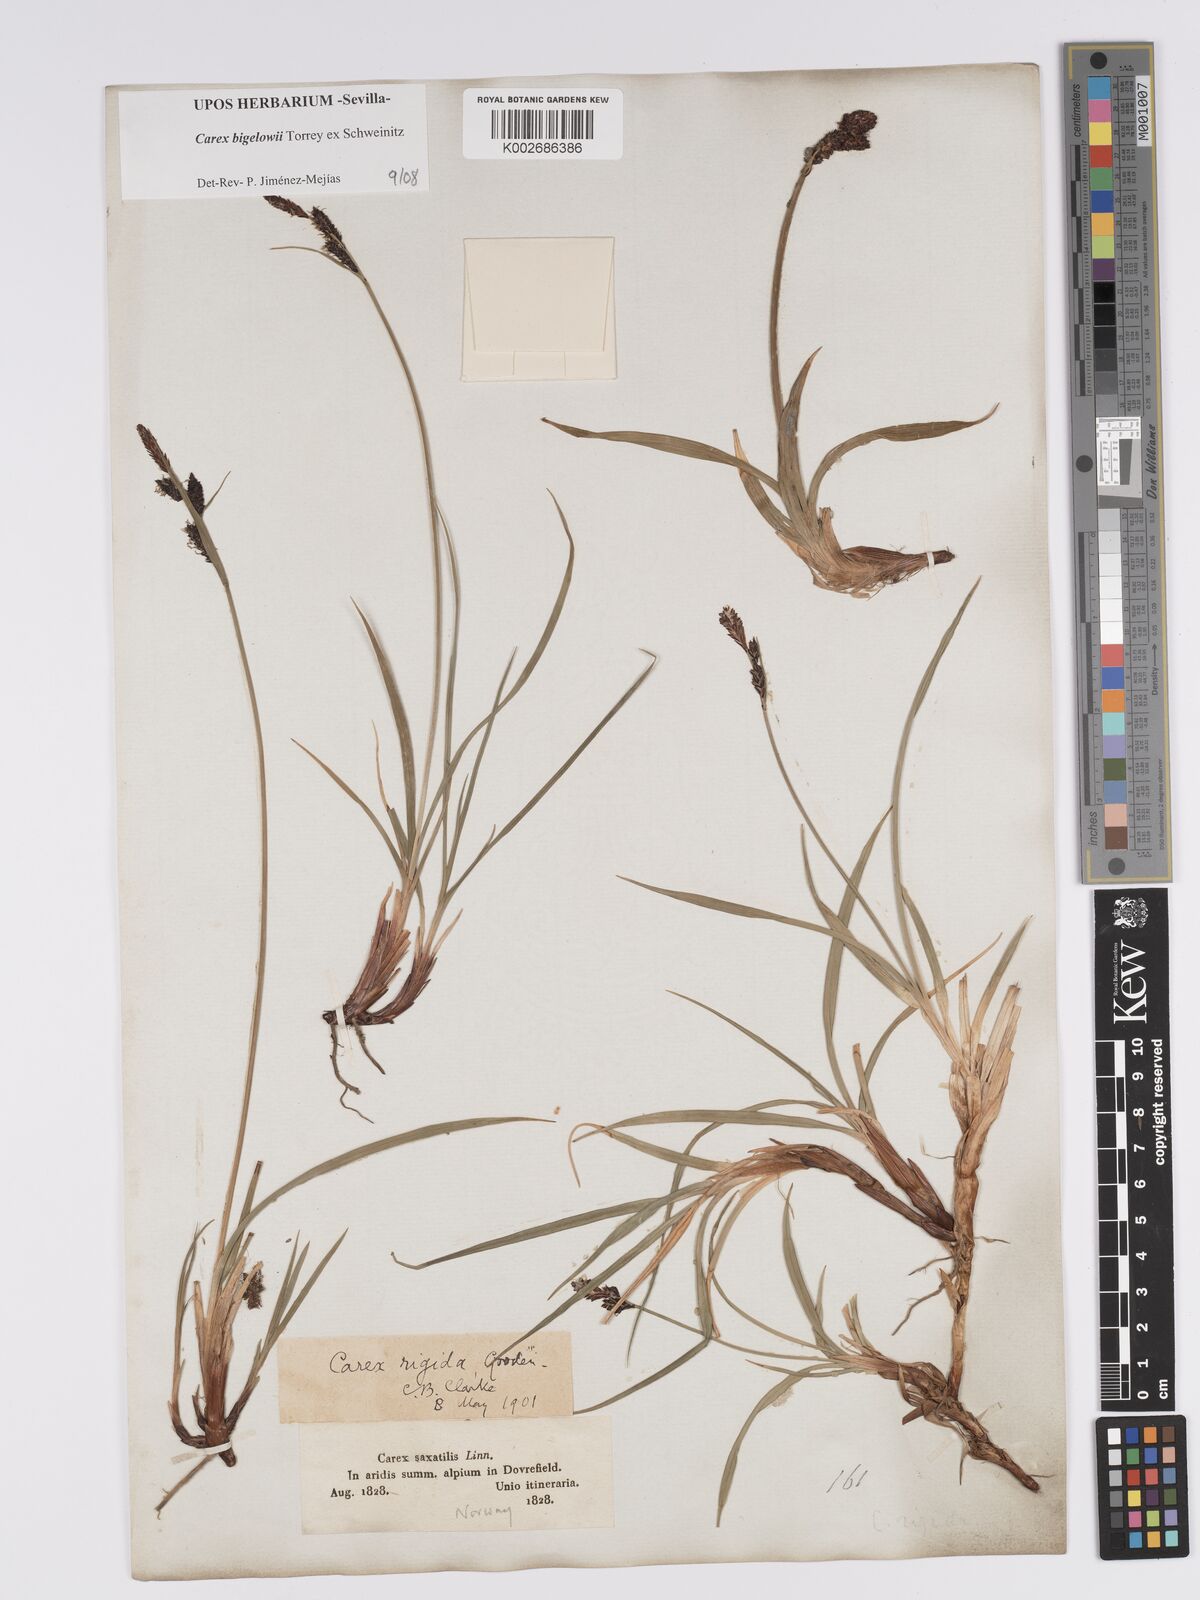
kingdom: Plantae
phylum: Tracheophyta
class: Liliopsida
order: Poales
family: Cyperaceae
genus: Carex
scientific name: Carex bigelowii
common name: Stiff sedge
